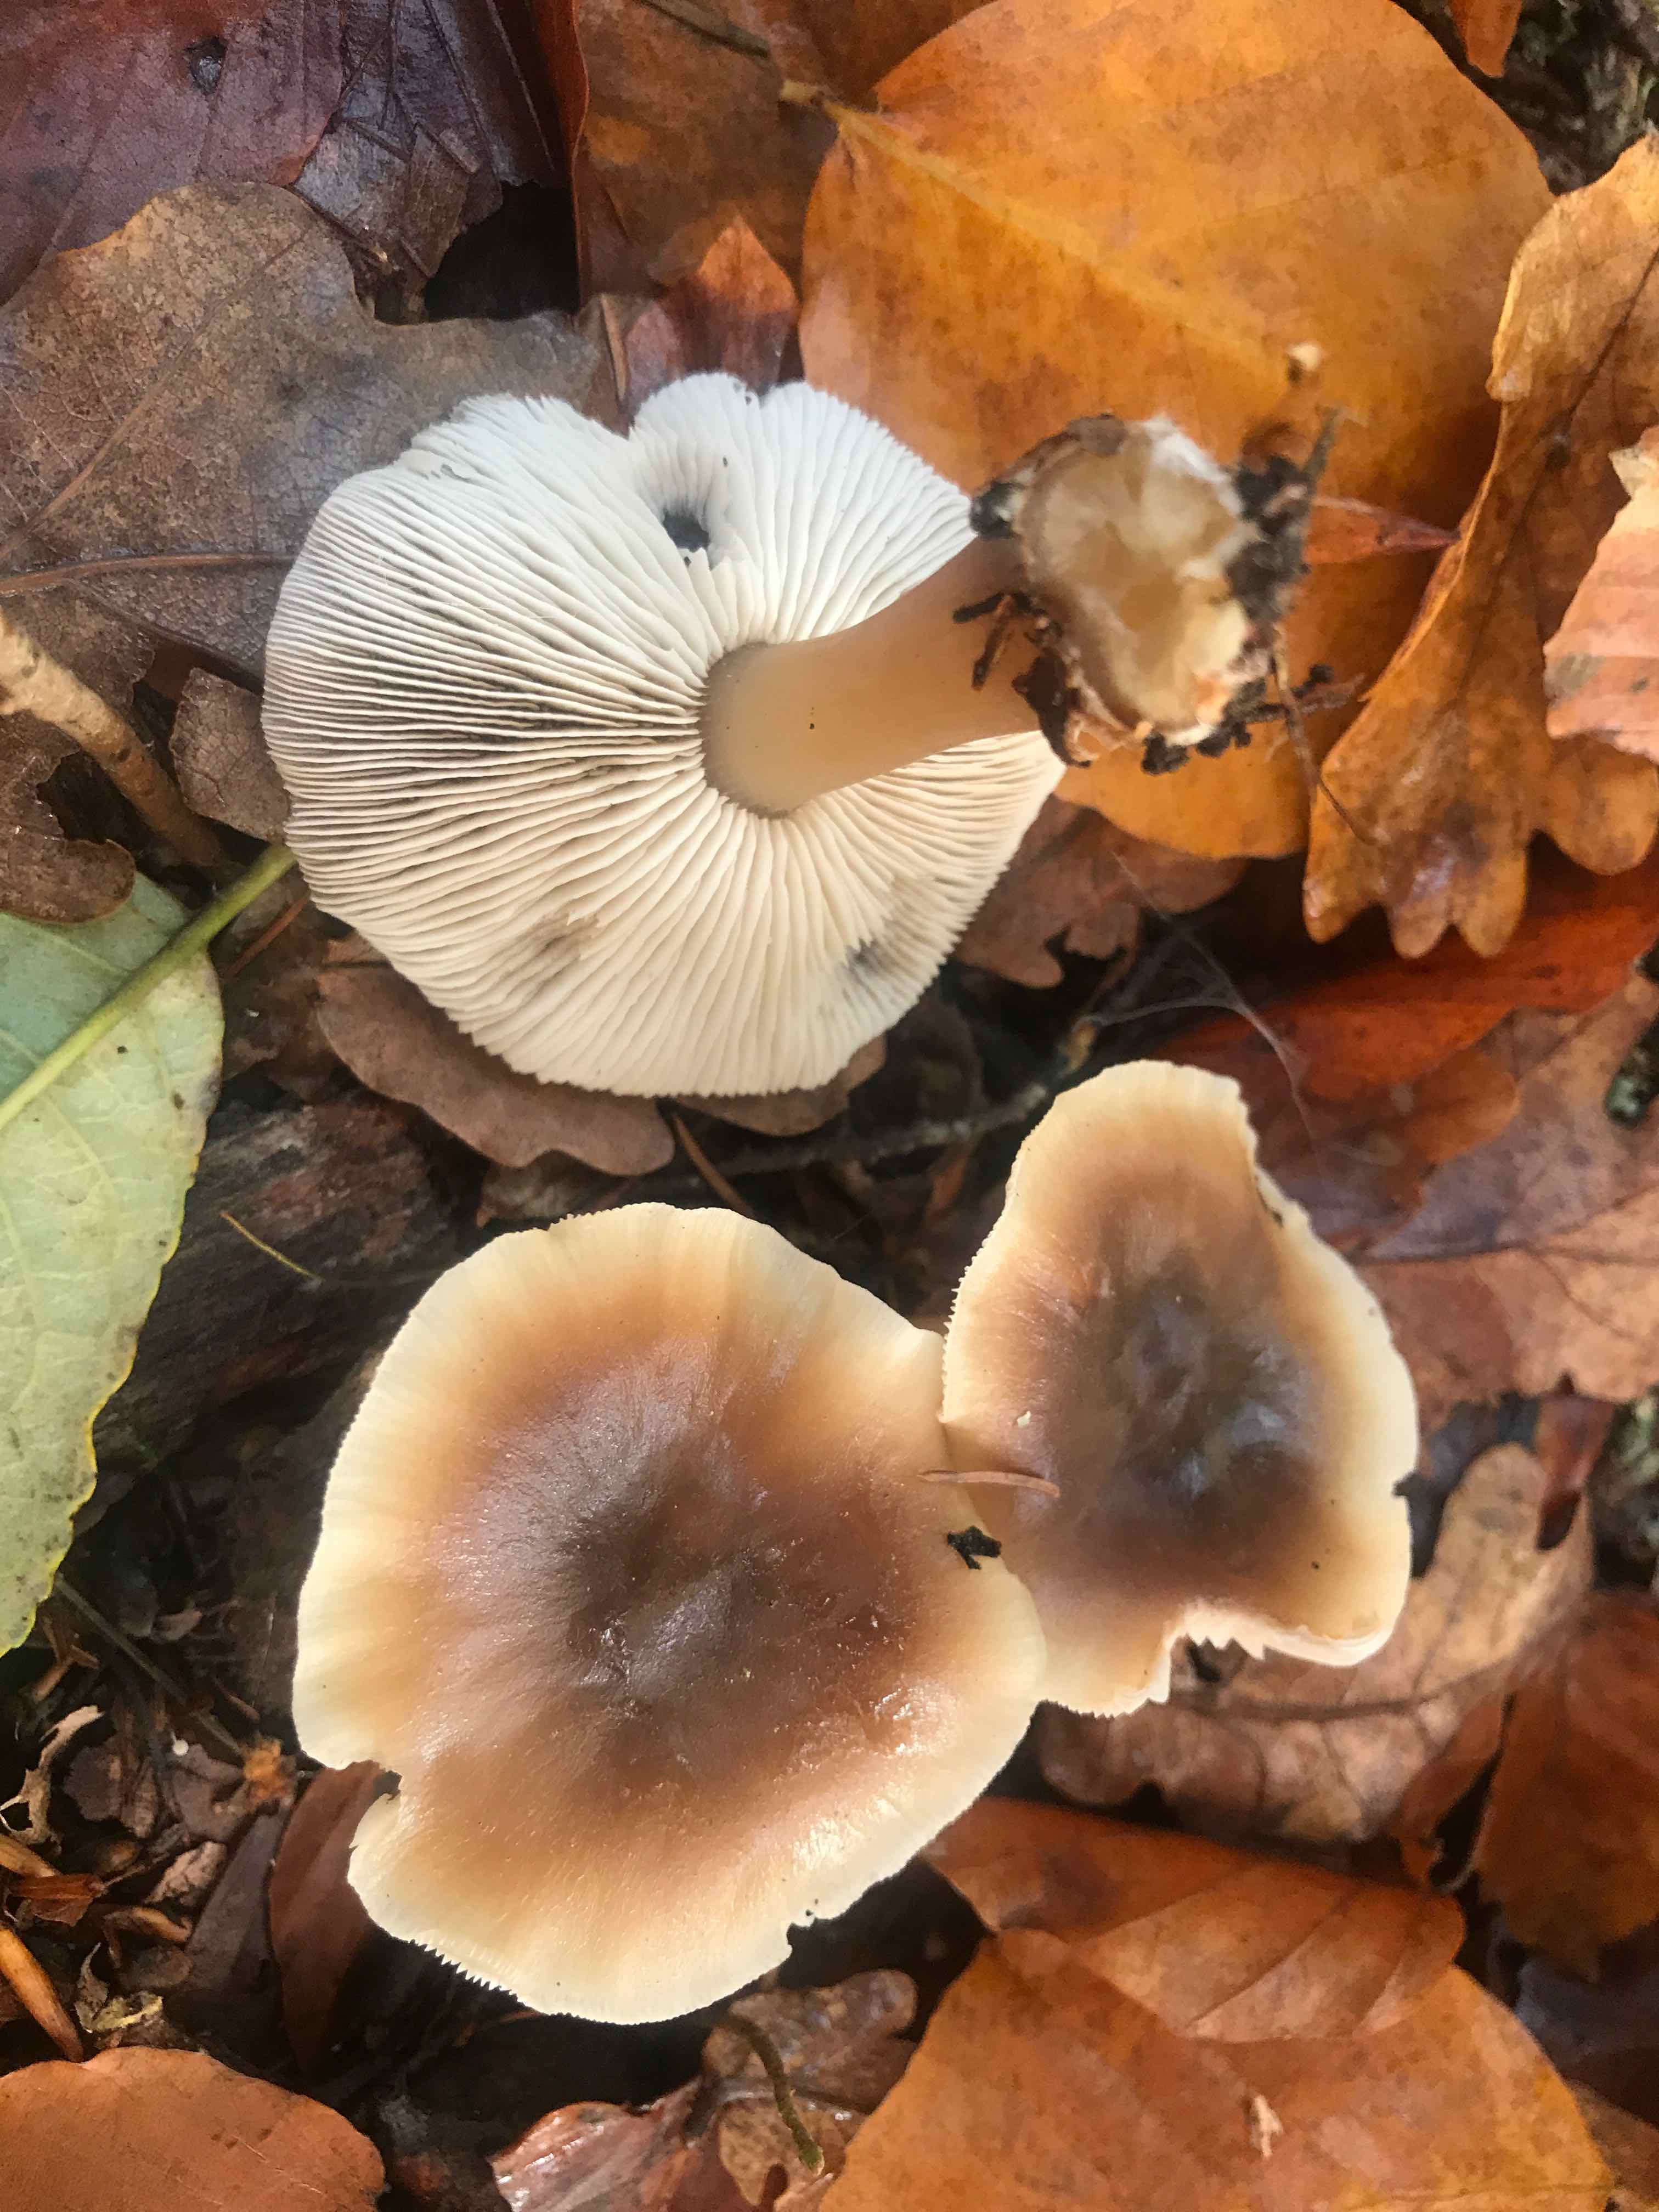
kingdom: Fungi
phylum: Basidiomycota
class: Agaricomycetes
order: Agaricales
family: Omphalotaceae
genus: Rhodocollybia
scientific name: Rhodocollybia asema
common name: horngrå fladhat
